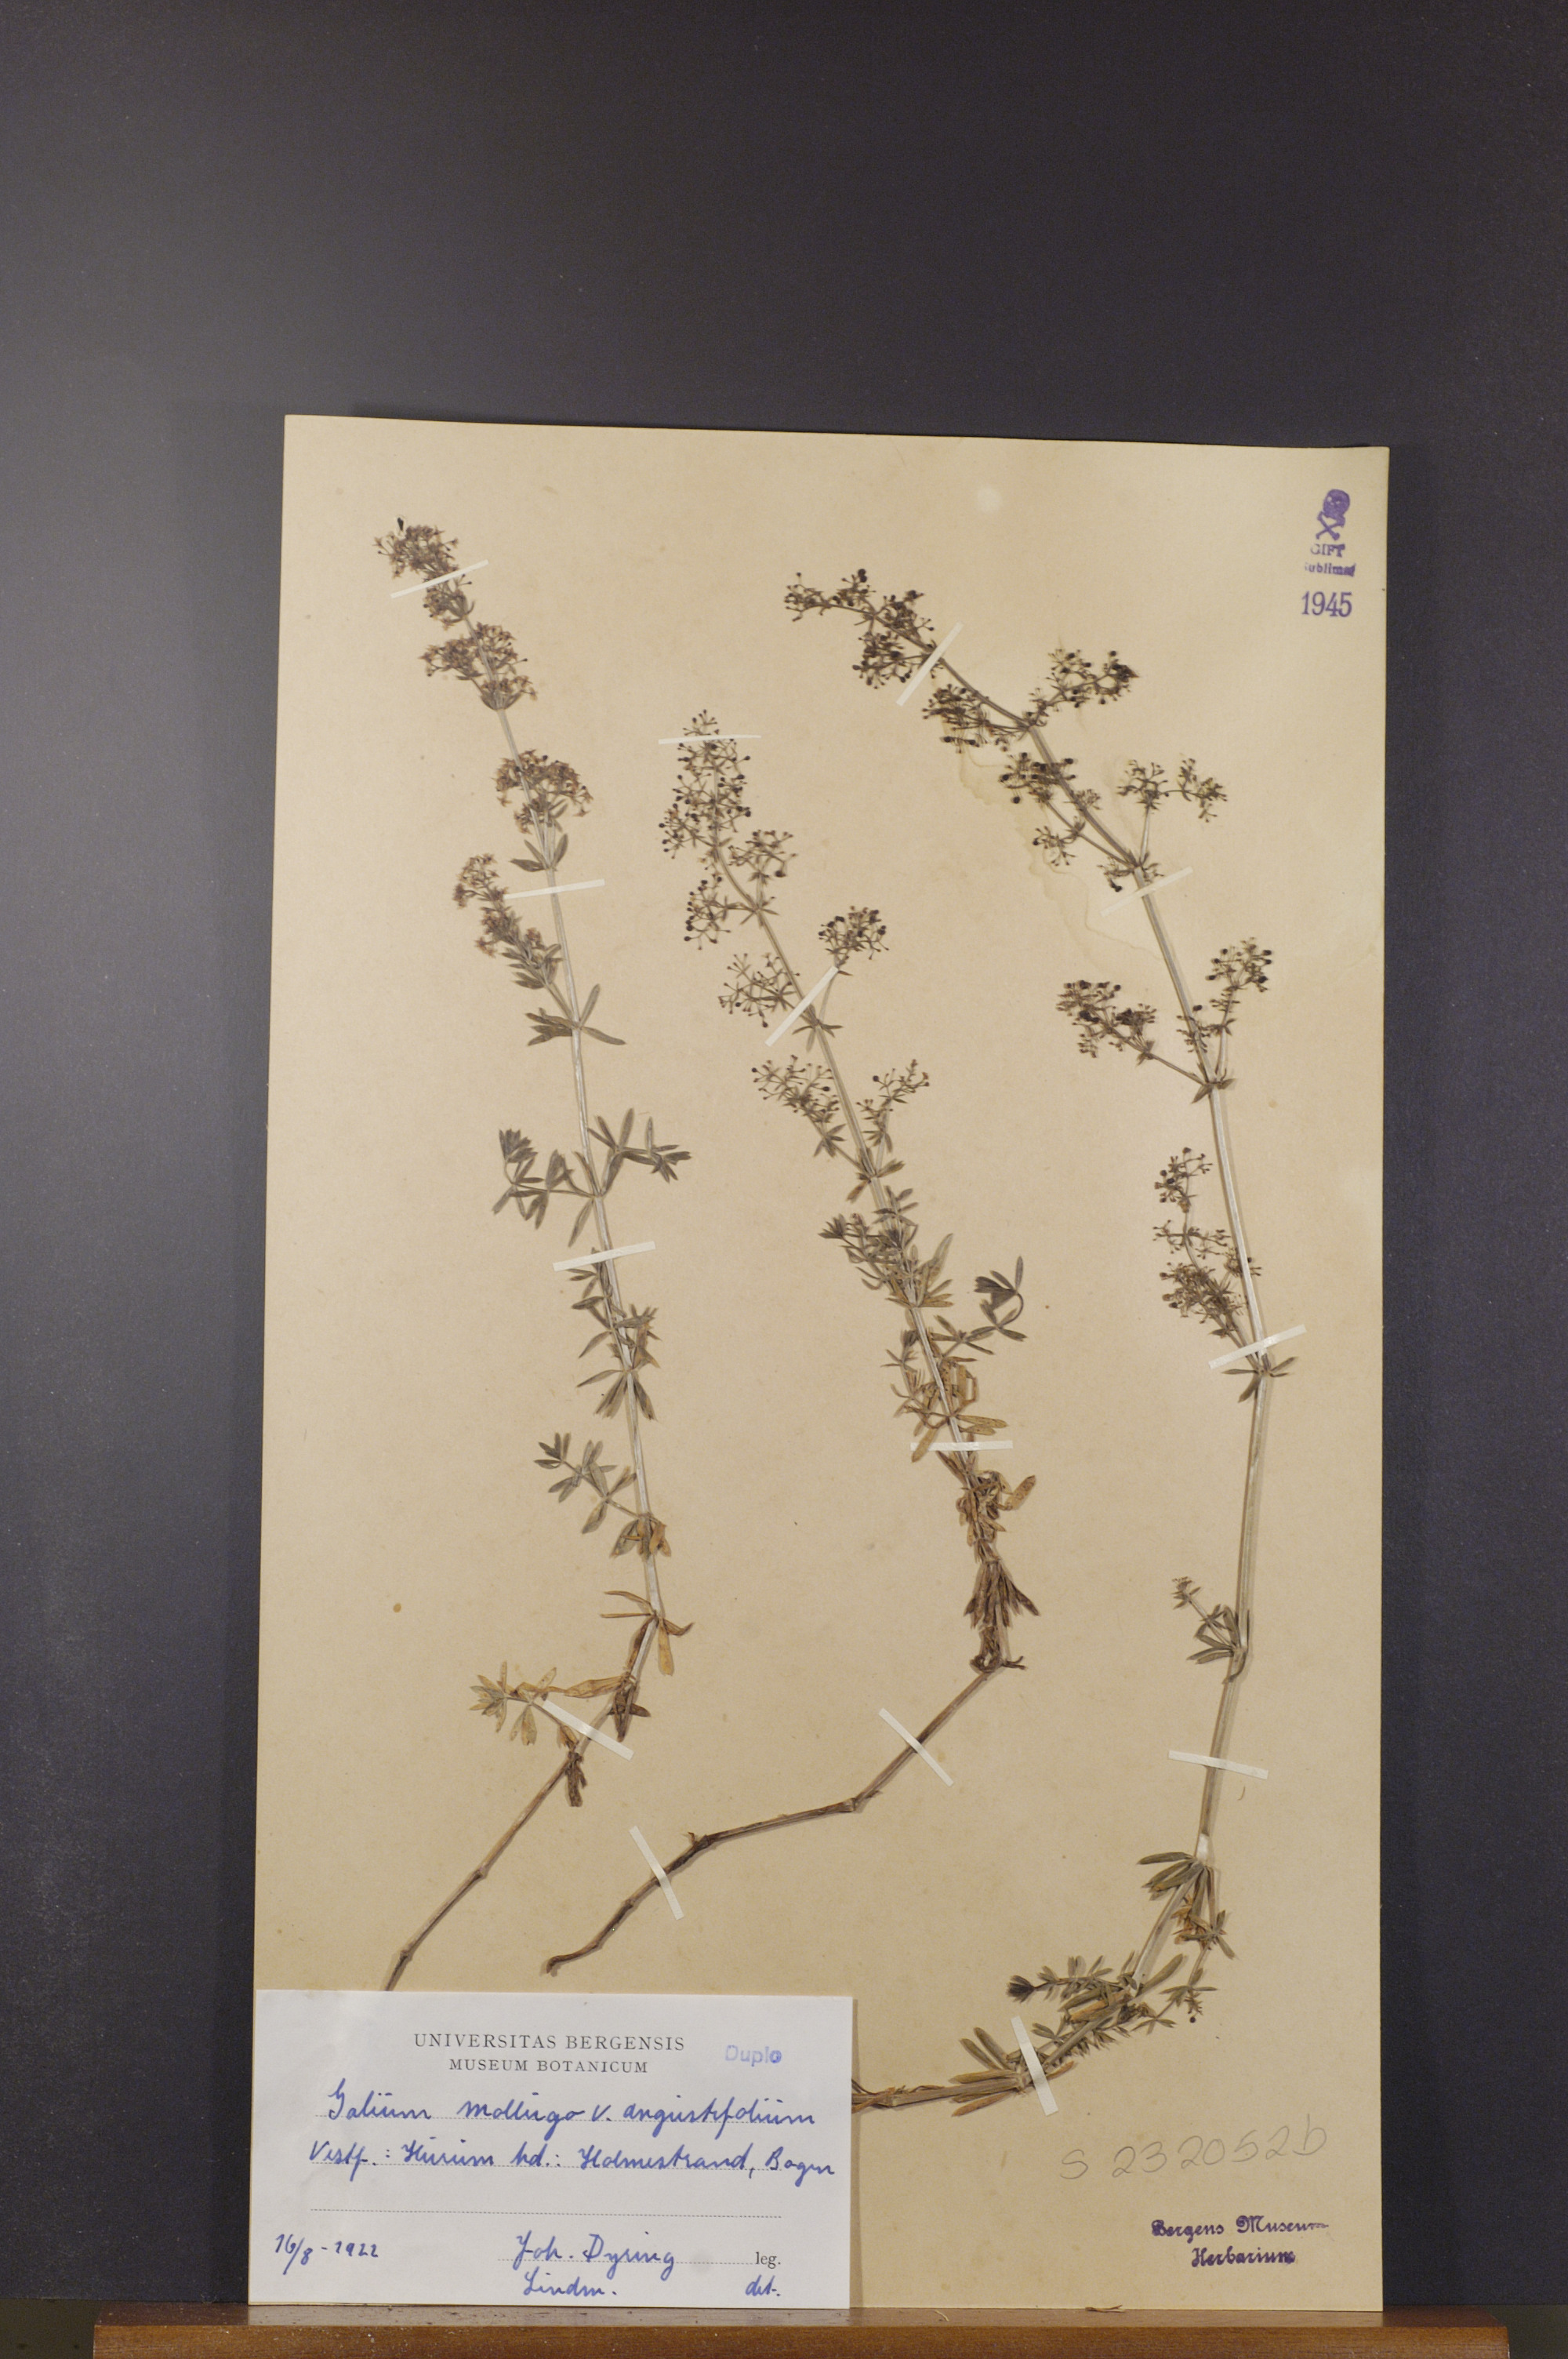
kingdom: Plantae
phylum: Tracheophyta
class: Magnoliopsida
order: Gentianales
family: Rubiaceae
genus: Galium
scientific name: Galium mollugo
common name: Hedge bedstraw
